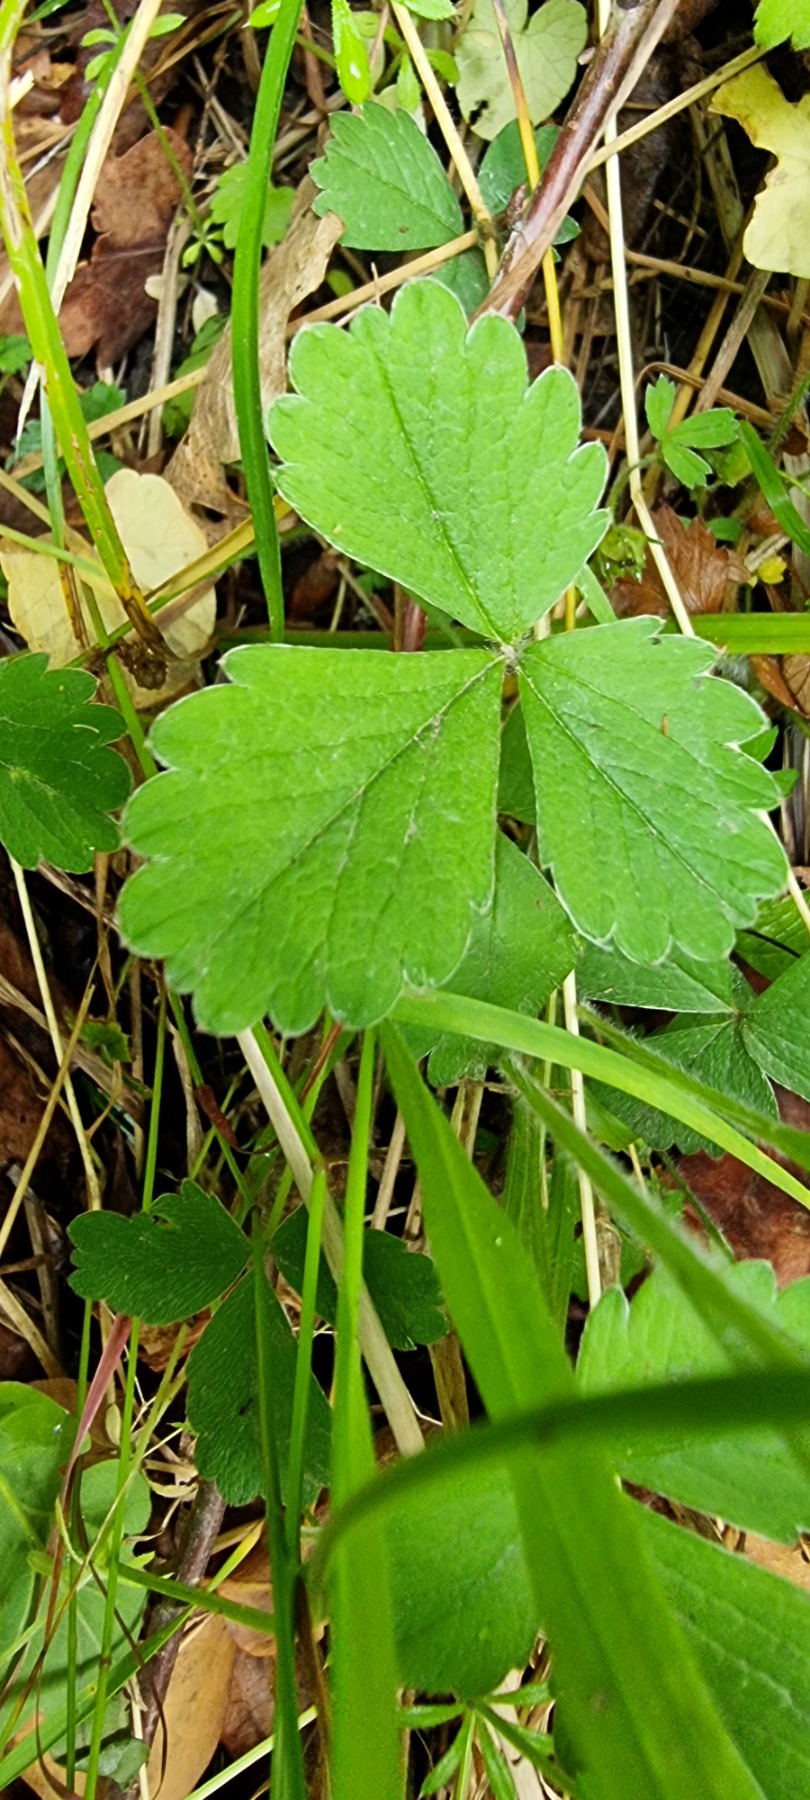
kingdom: Plantae
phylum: Tracheophyta
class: Magnoliopsida
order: Rosales
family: Rosaceae
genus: Potentilla
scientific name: Potentilla sterilis
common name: Jordbær-potentil
